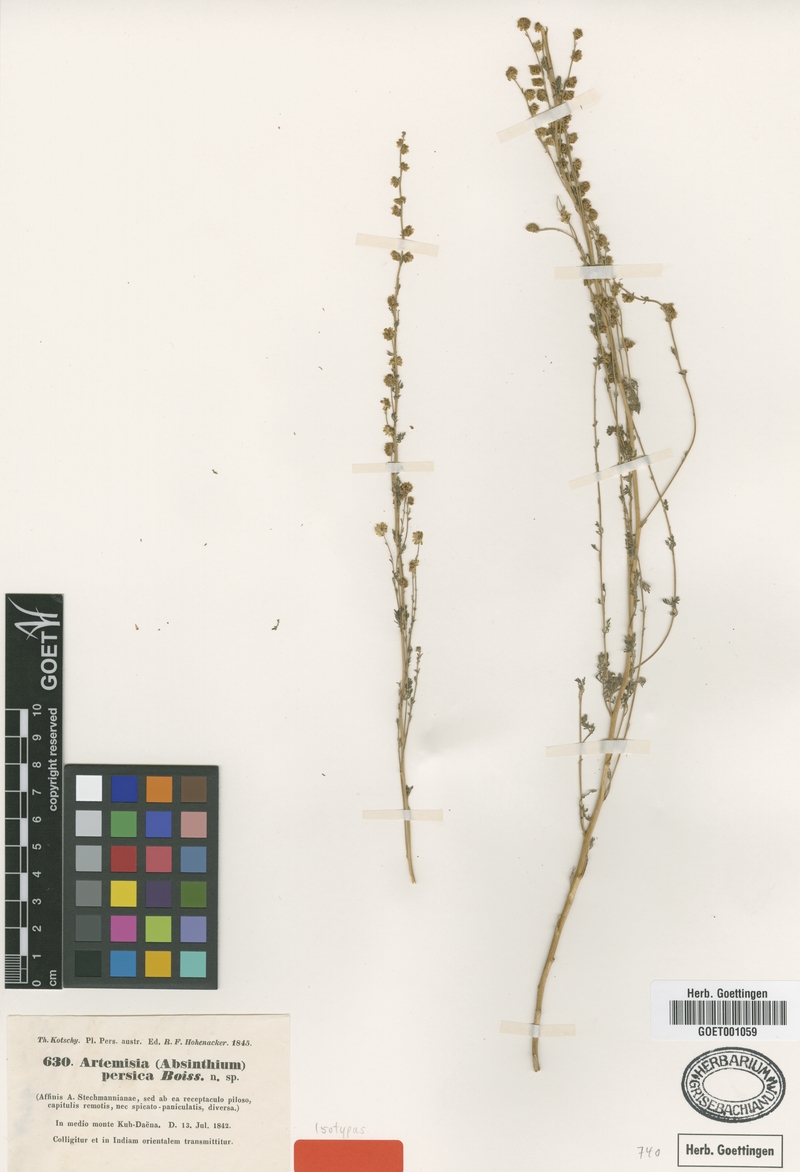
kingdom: Plantae
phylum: Tracheophyta
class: Magnoliopsida
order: Asterales
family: Asteraceae
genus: Artemisia
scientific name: Artemisia persica
